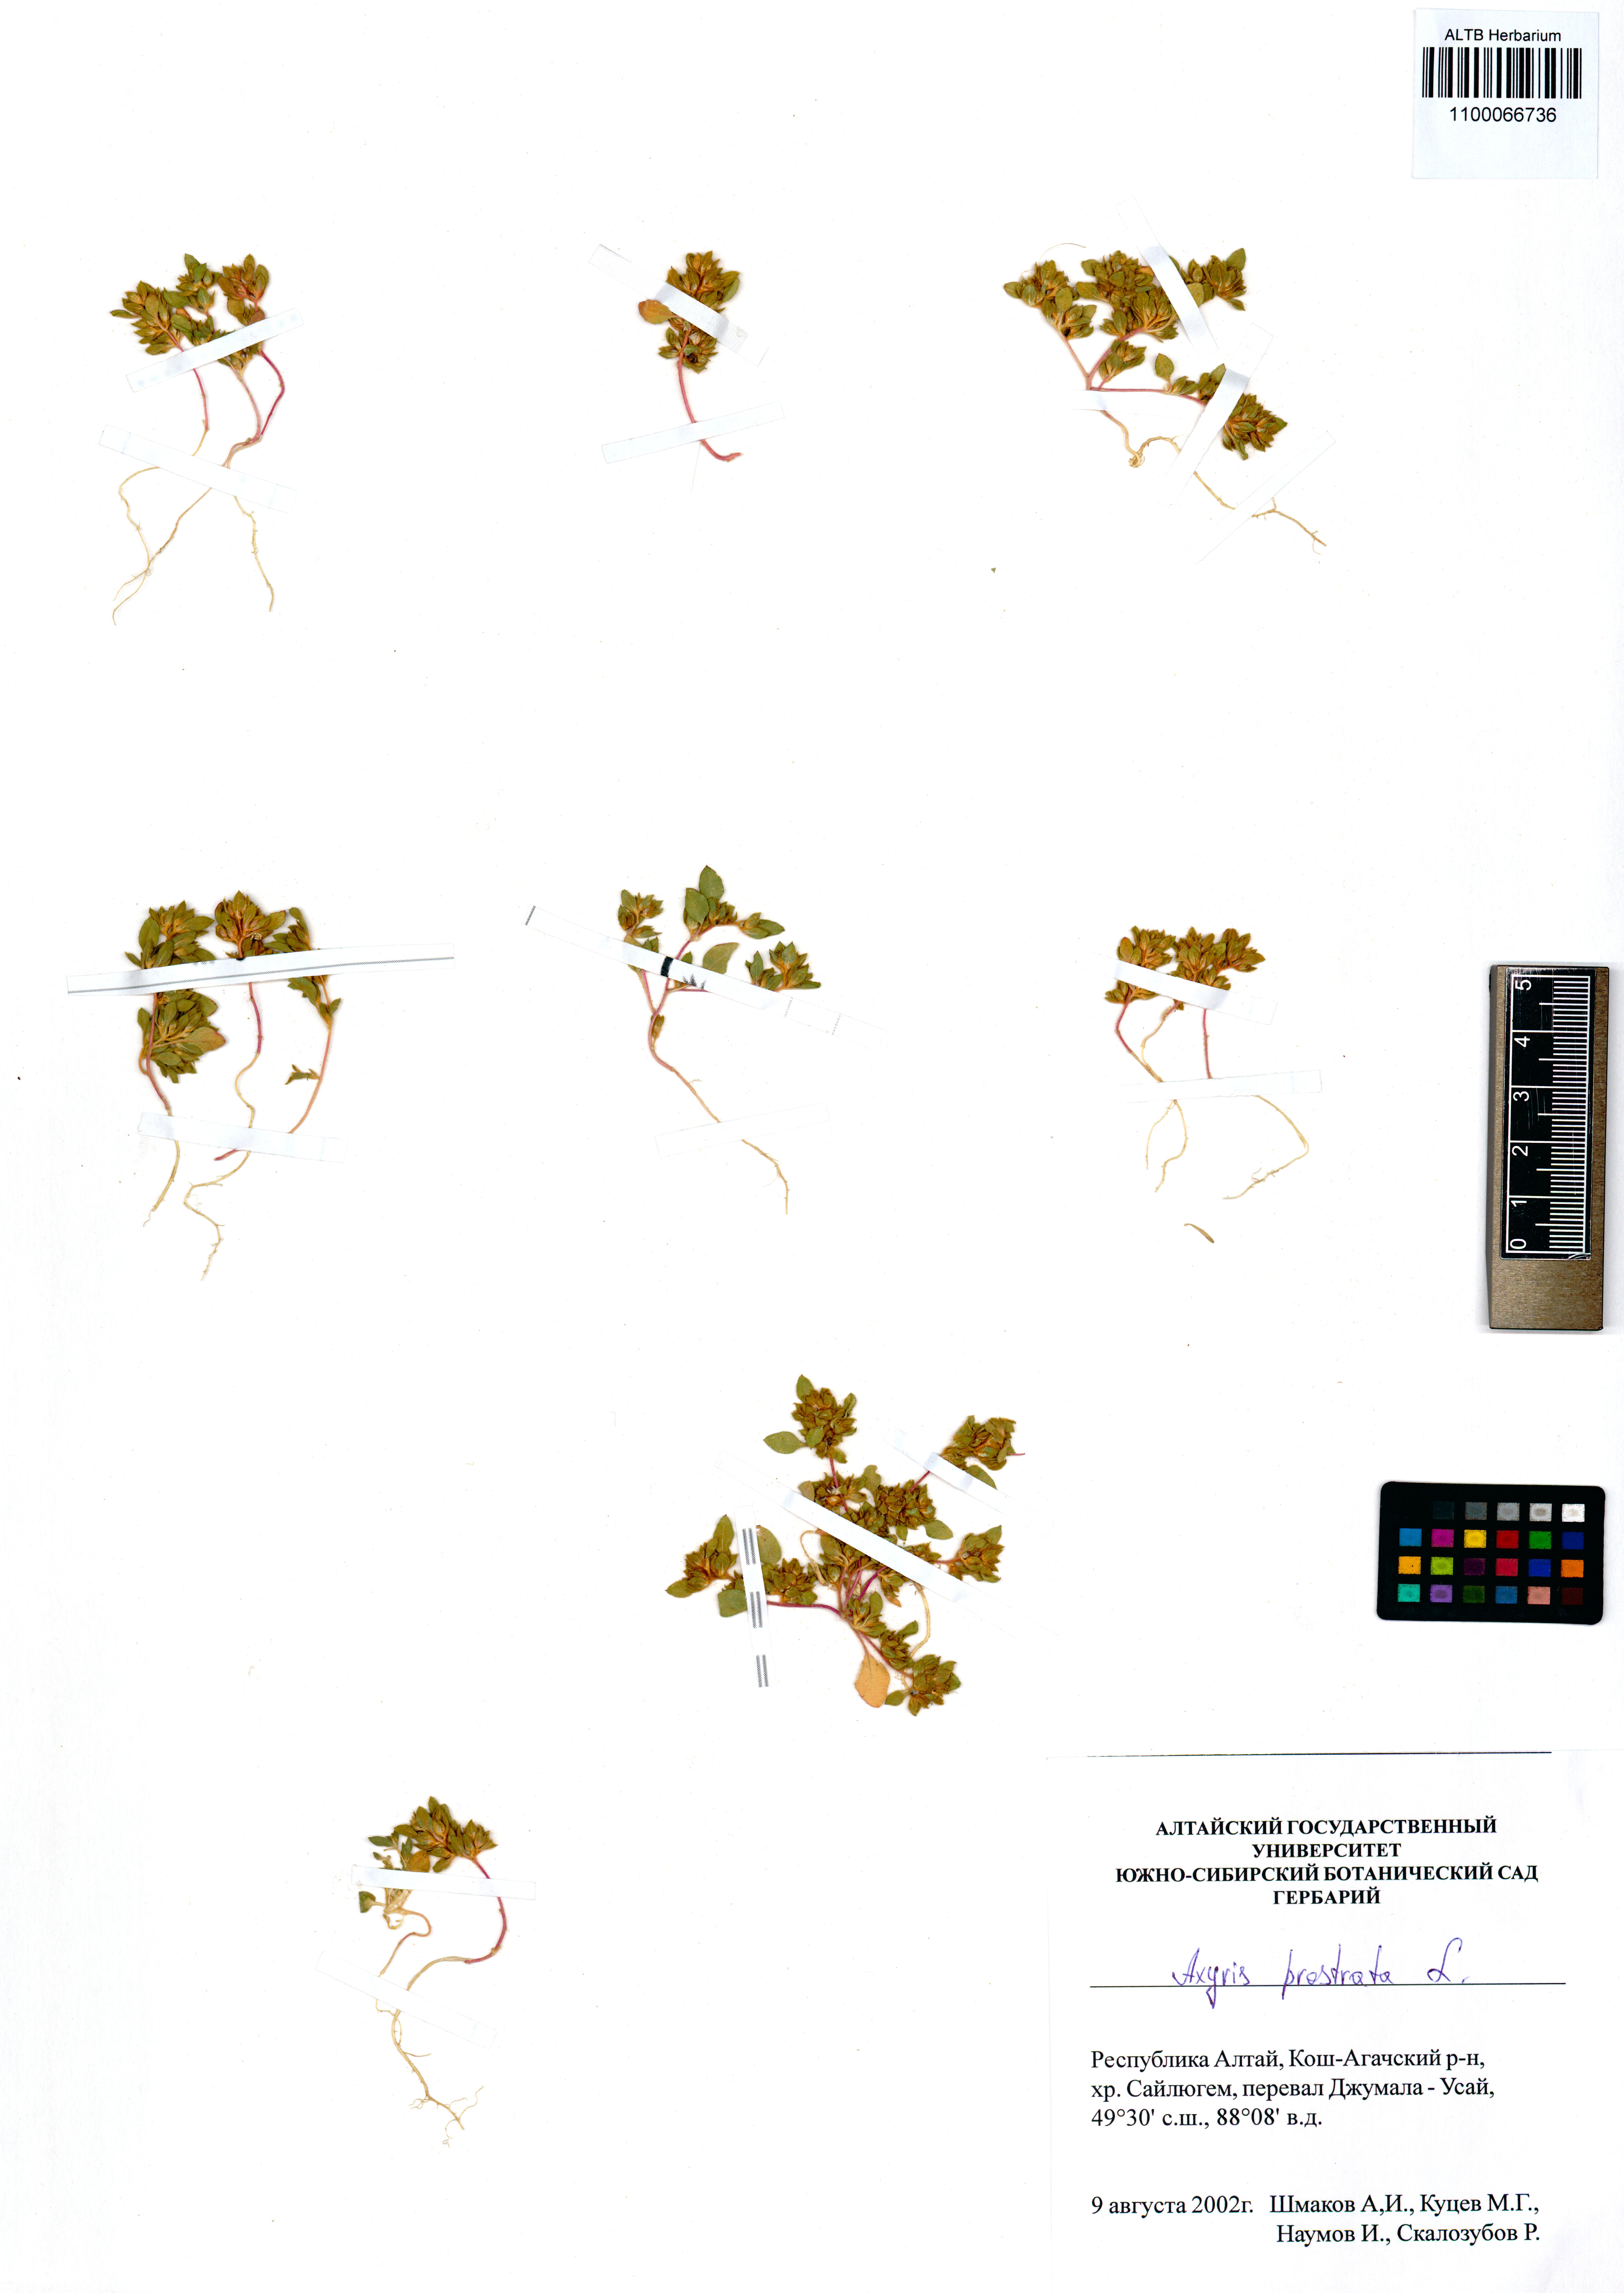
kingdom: Plantae
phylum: Tracheophyta
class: Magnoliopsida
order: Caryophyllales
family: Amaranthaceae
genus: Axyris
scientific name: Axyris prostrata
